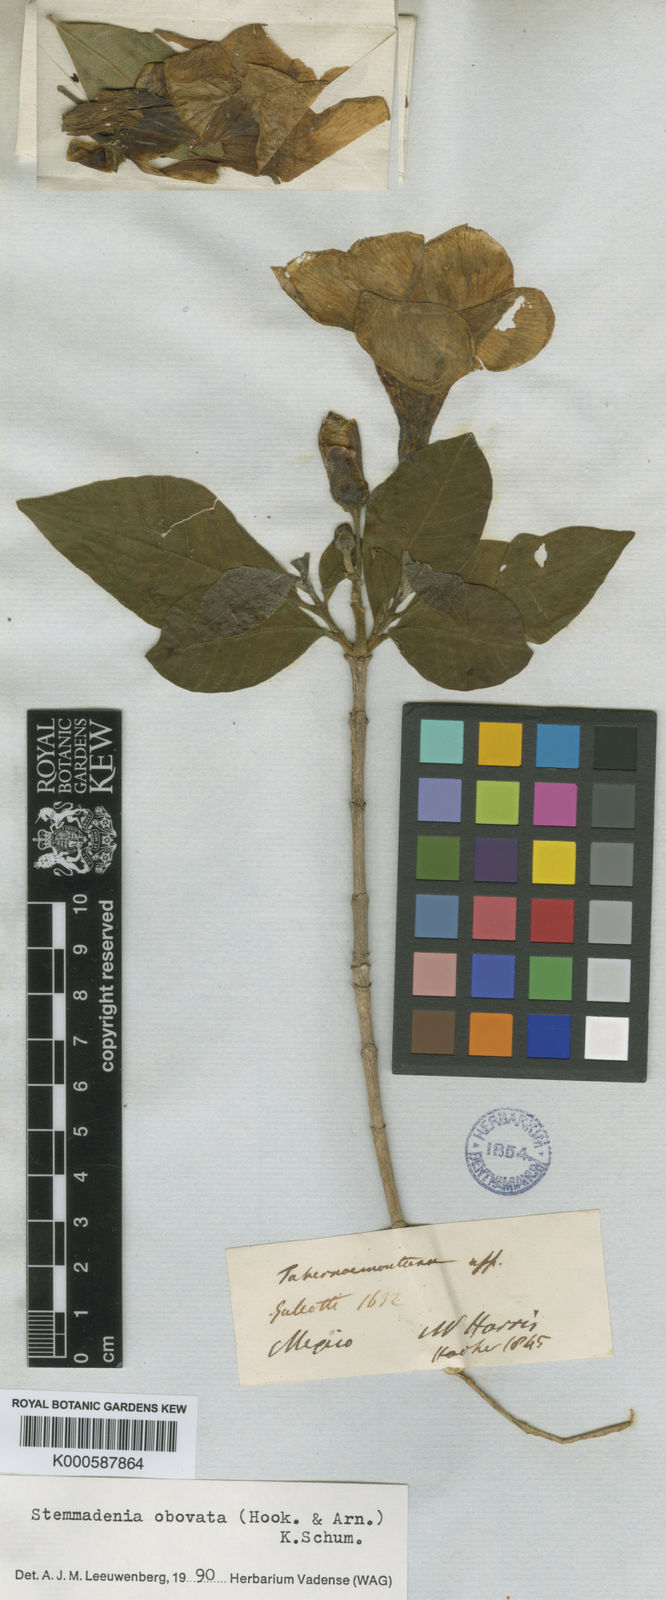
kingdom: Plantae
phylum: Tracheophyta
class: Magnoliopsida
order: Gentianales
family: Apocynaceae
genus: Tabernaemontana
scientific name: Tabernaemontana glabra
